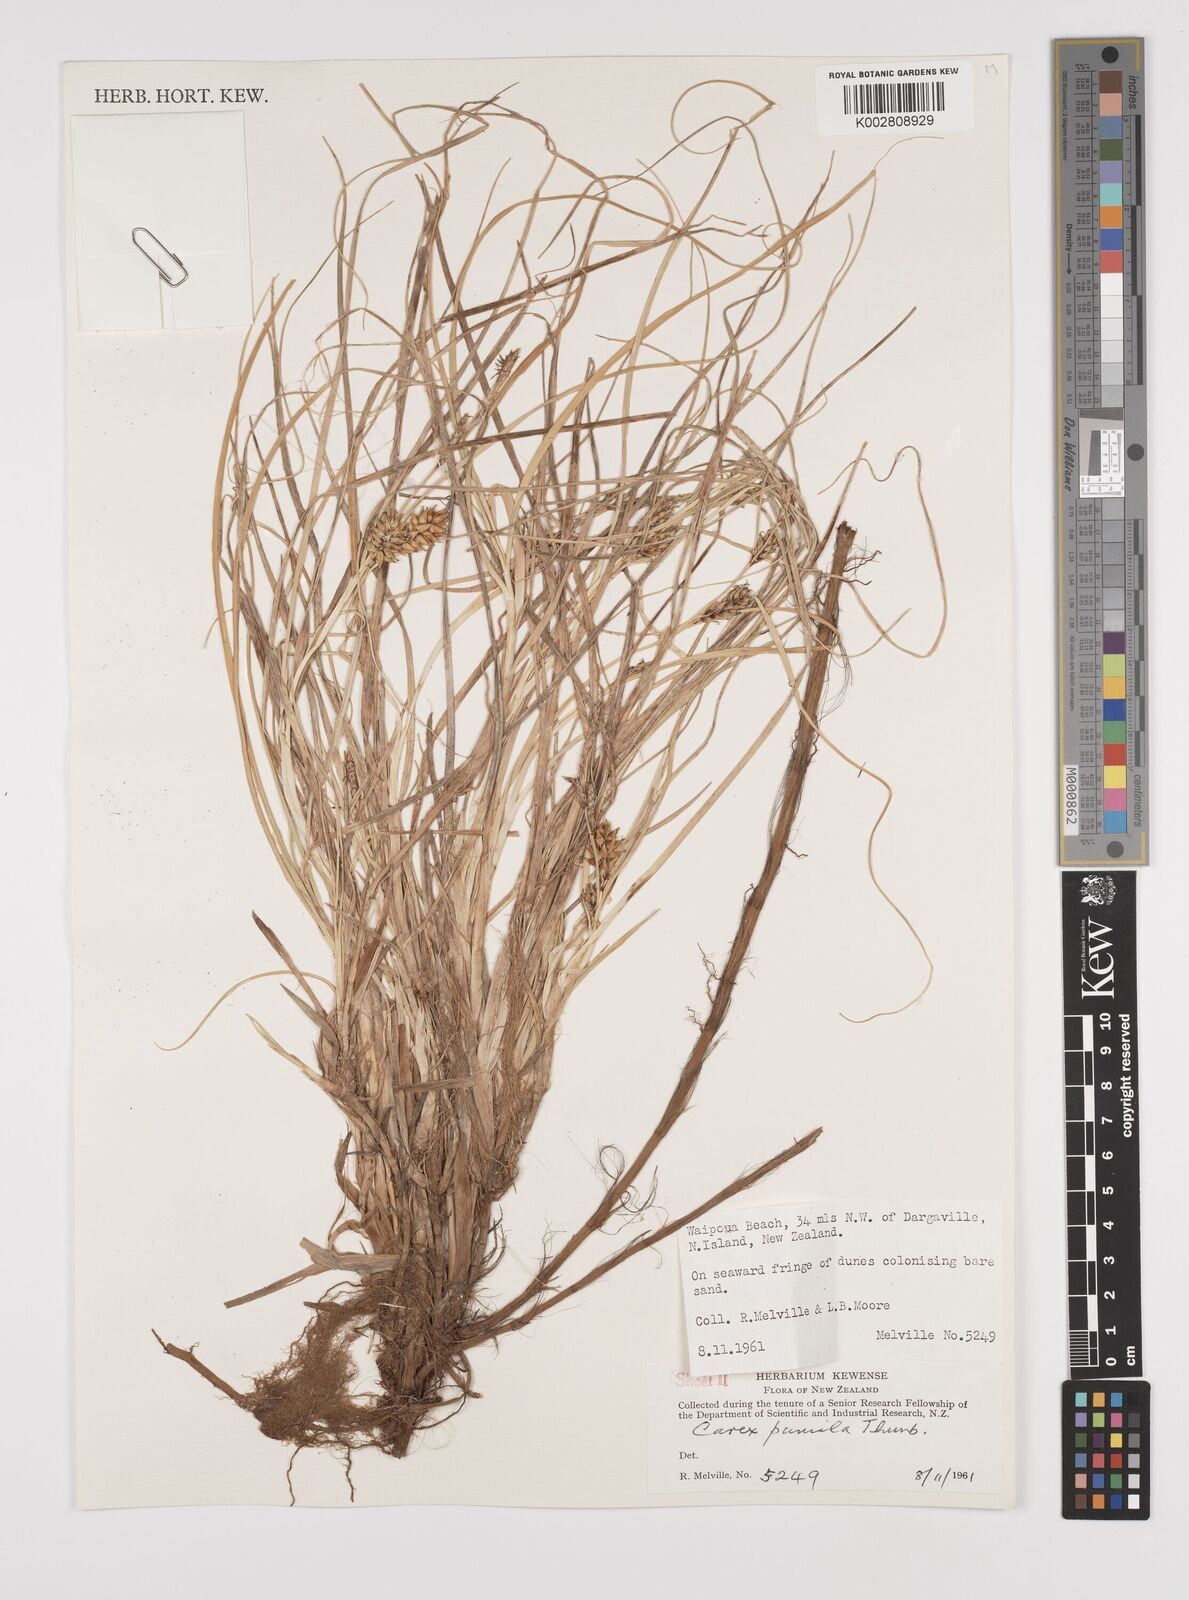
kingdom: Plantae
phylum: Tracheophyta
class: Liliopsida
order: Poales
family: Cyperaceae
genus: Carex
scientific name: Carex pumila
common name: Dwarf sedge
